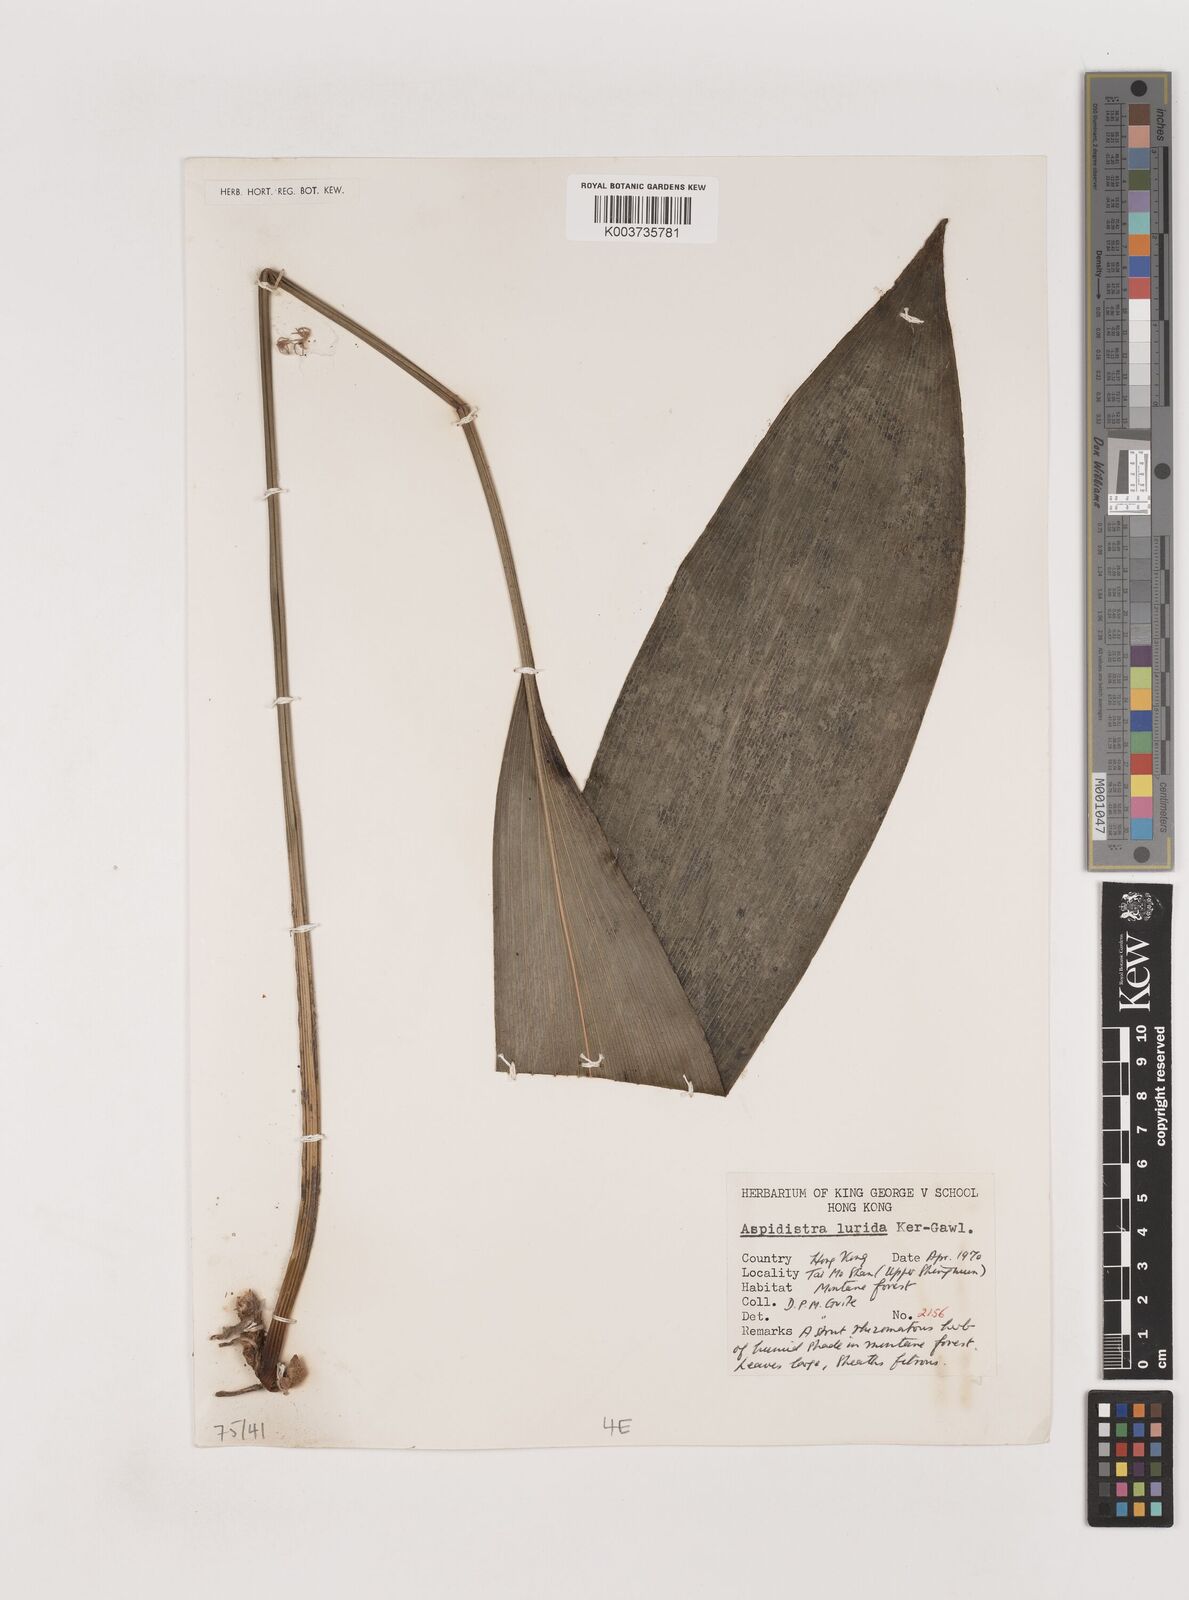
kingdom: Plantae
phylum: Tracheophyta
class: Liliopsida
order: Asparagales
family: Asparagaceae
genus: Aspidistra
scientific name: Aspidistra lurida
